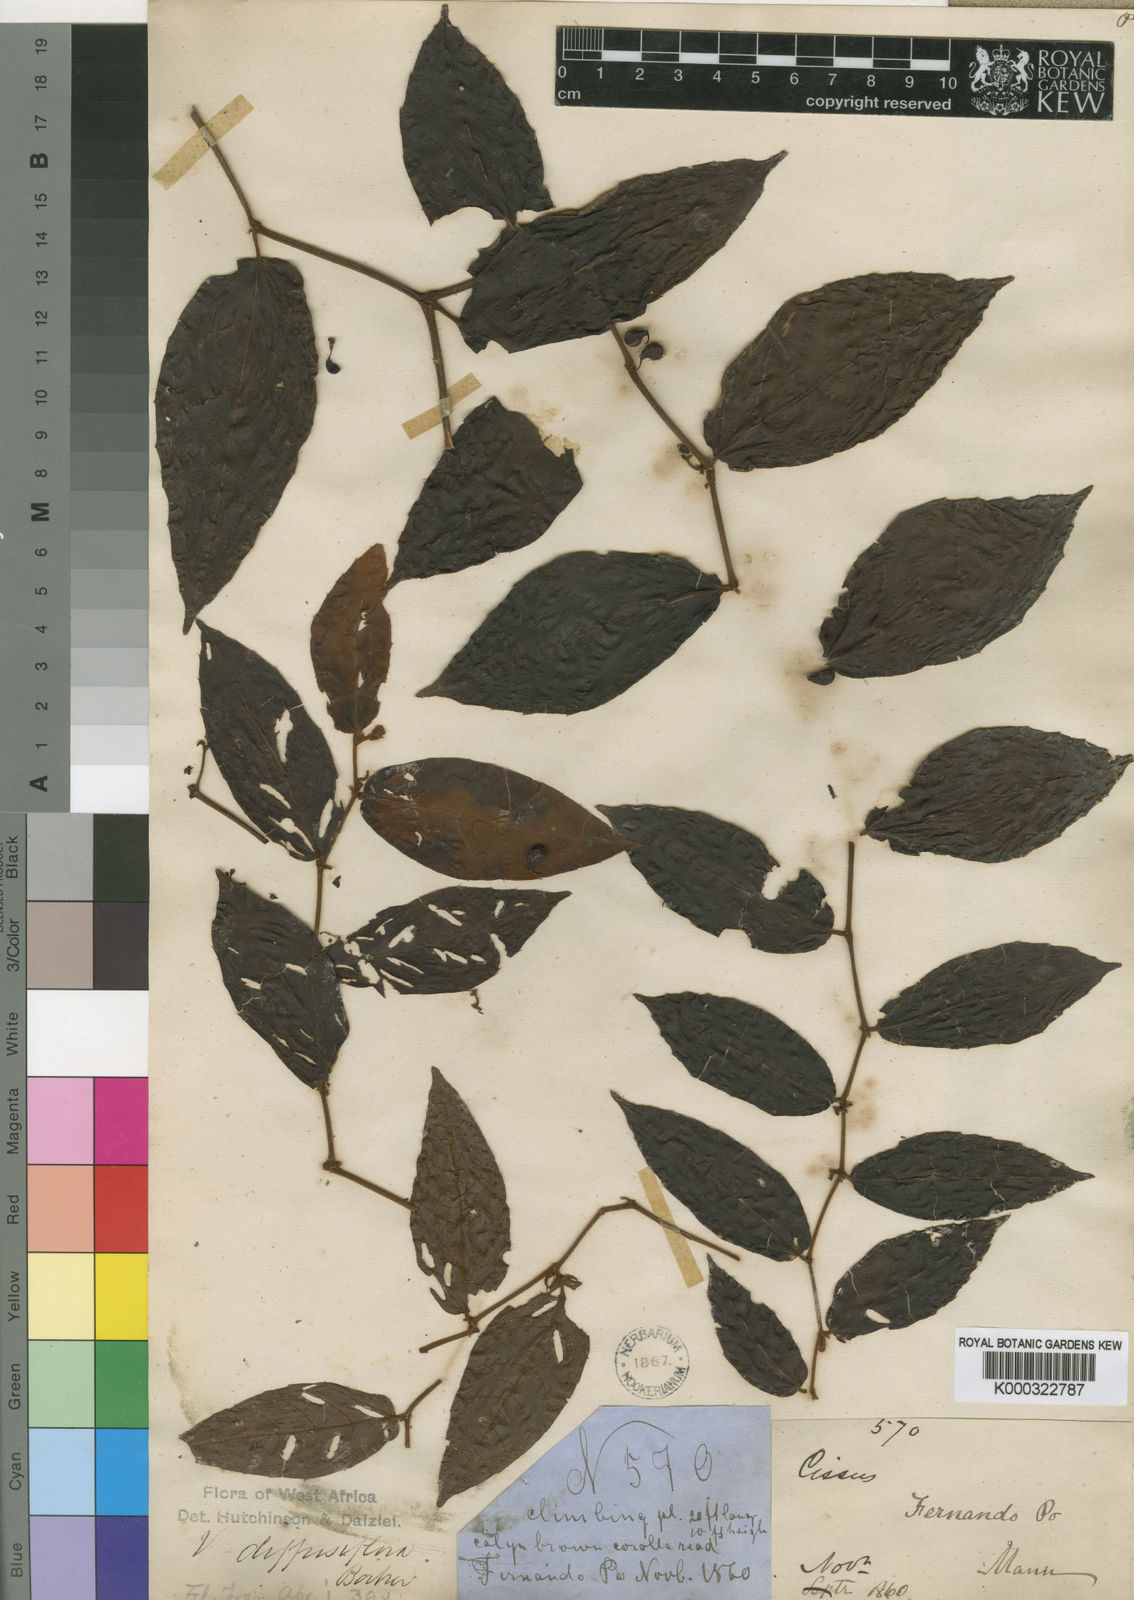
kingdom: Plantae
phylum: Tracheophyta
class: Magnoliopsida
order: Vitales
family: Vitaceae
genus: Cissus
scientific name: Cissus diffusiflora
